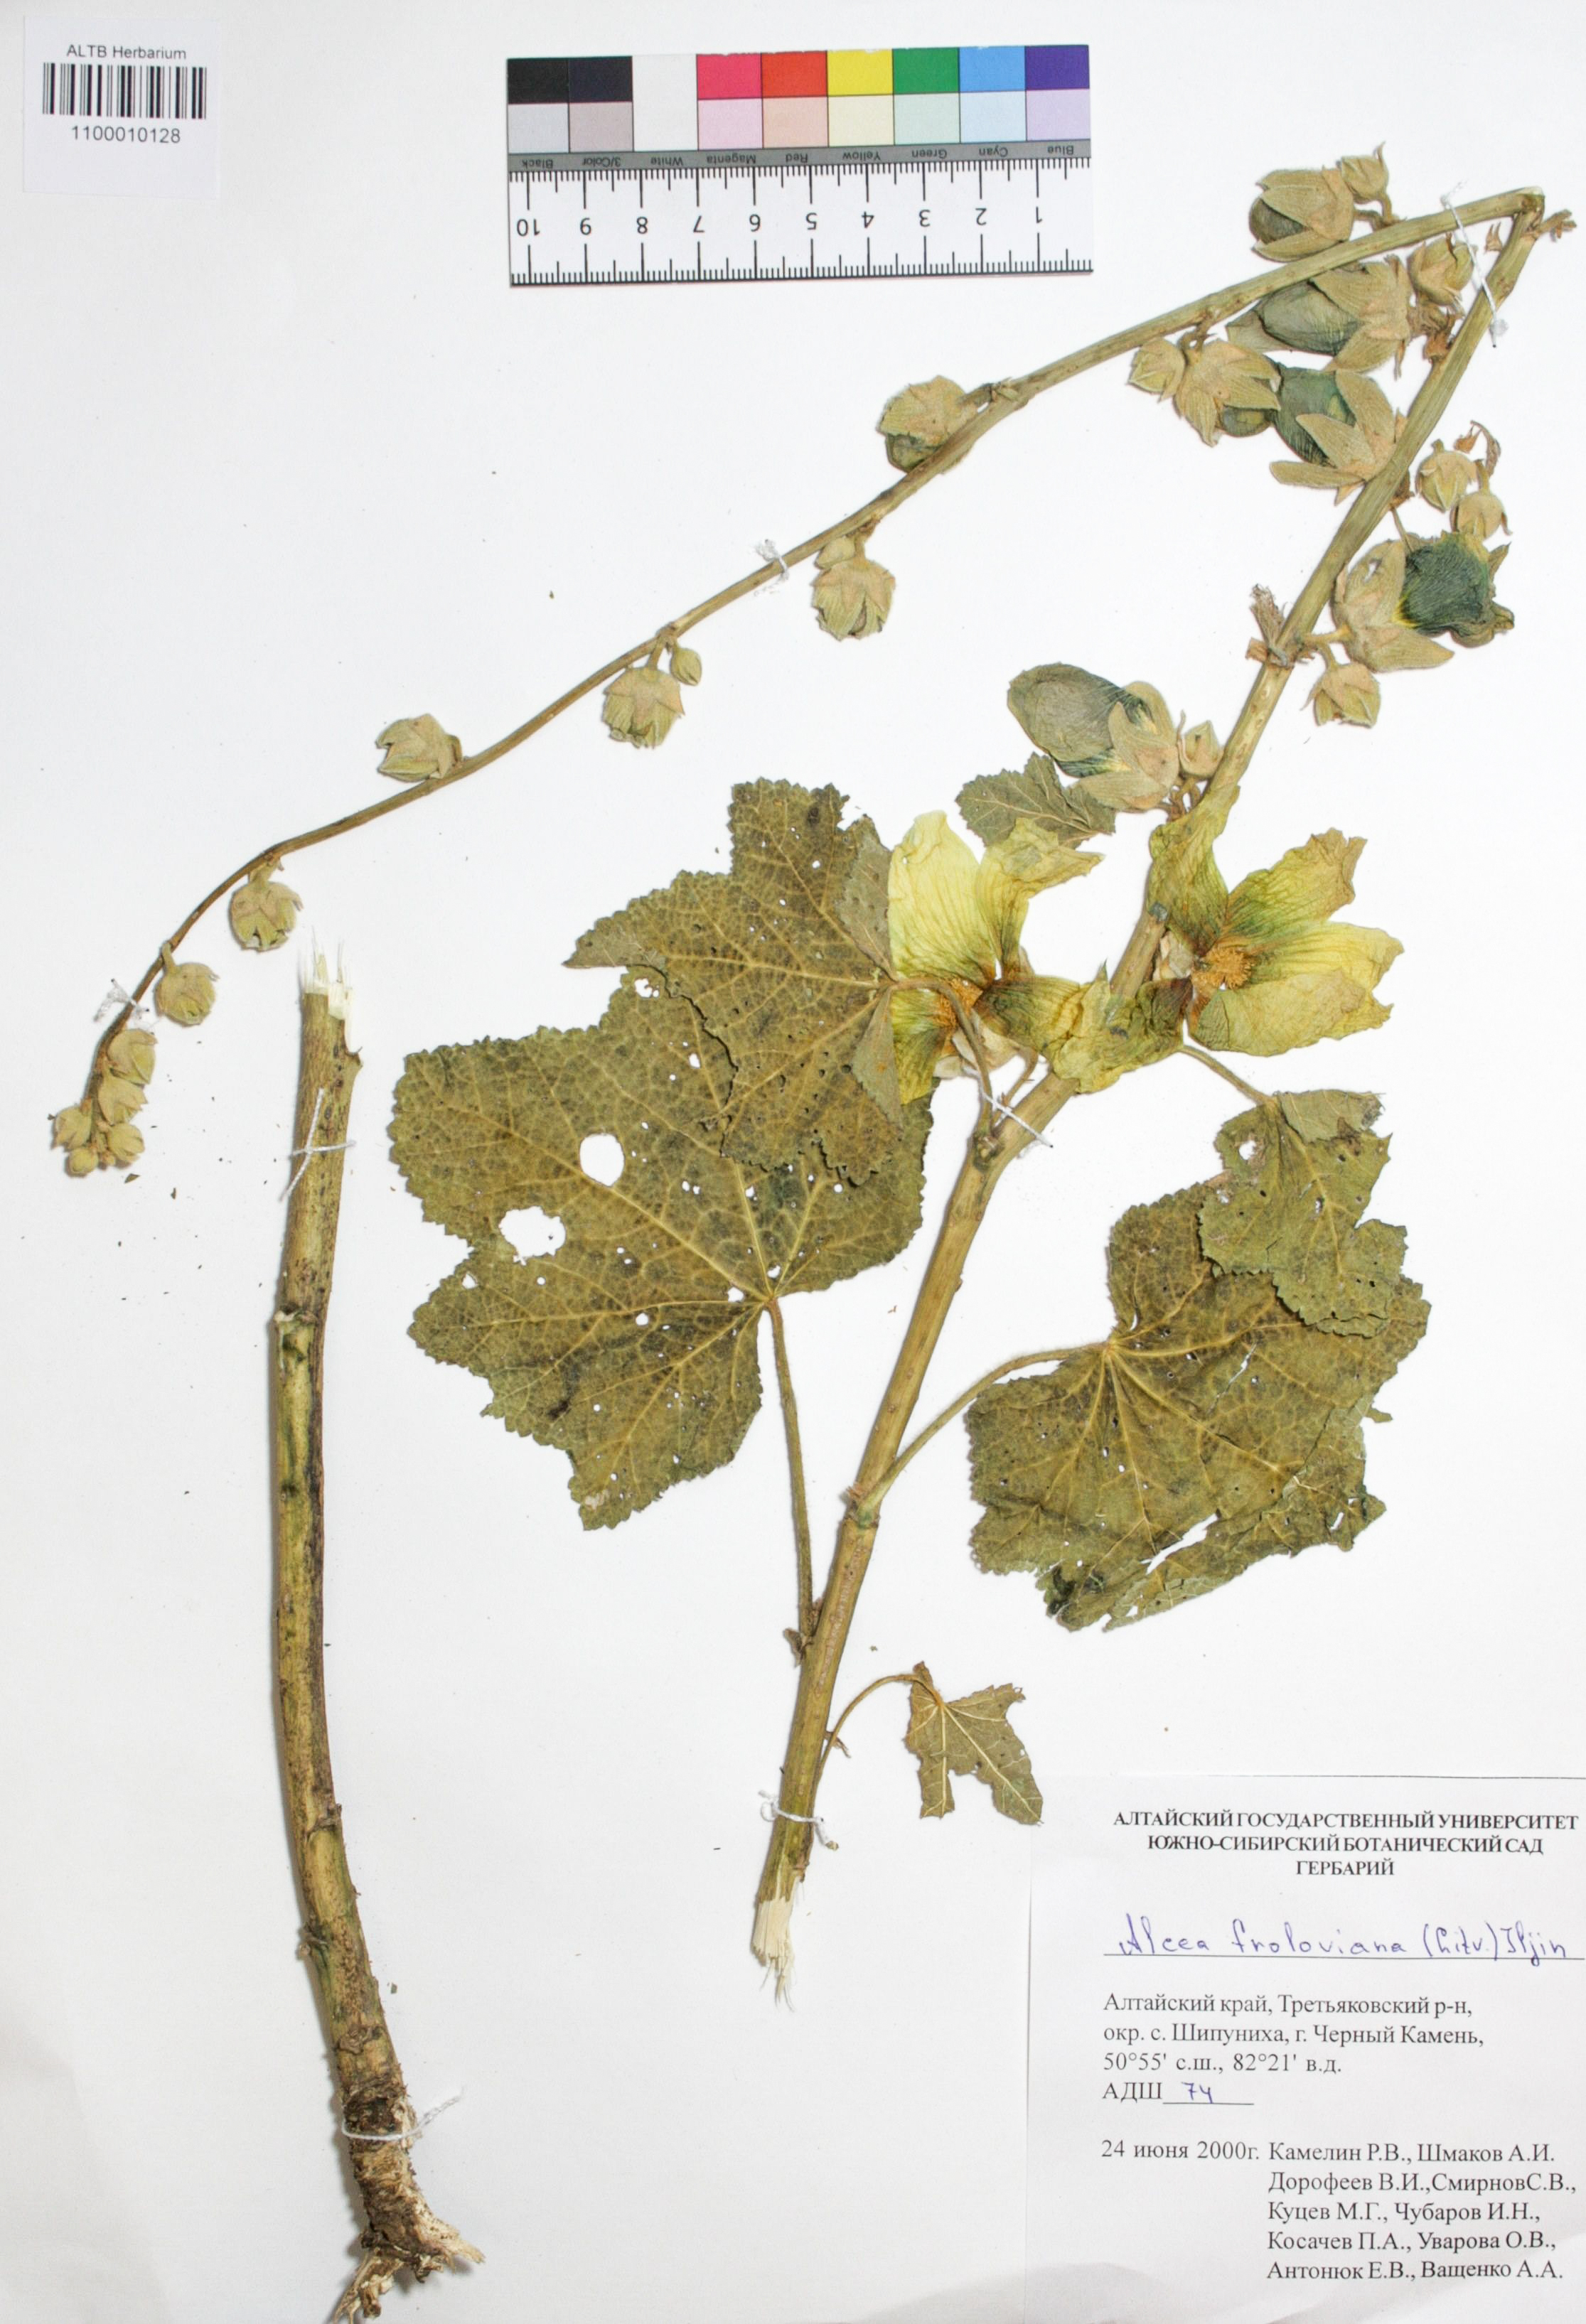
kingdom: Plantae
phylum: Tracheophyta
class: Magnoliopsida
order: Malvales
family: Malvaceae
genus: Alcea
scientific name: Alcea froloviana
